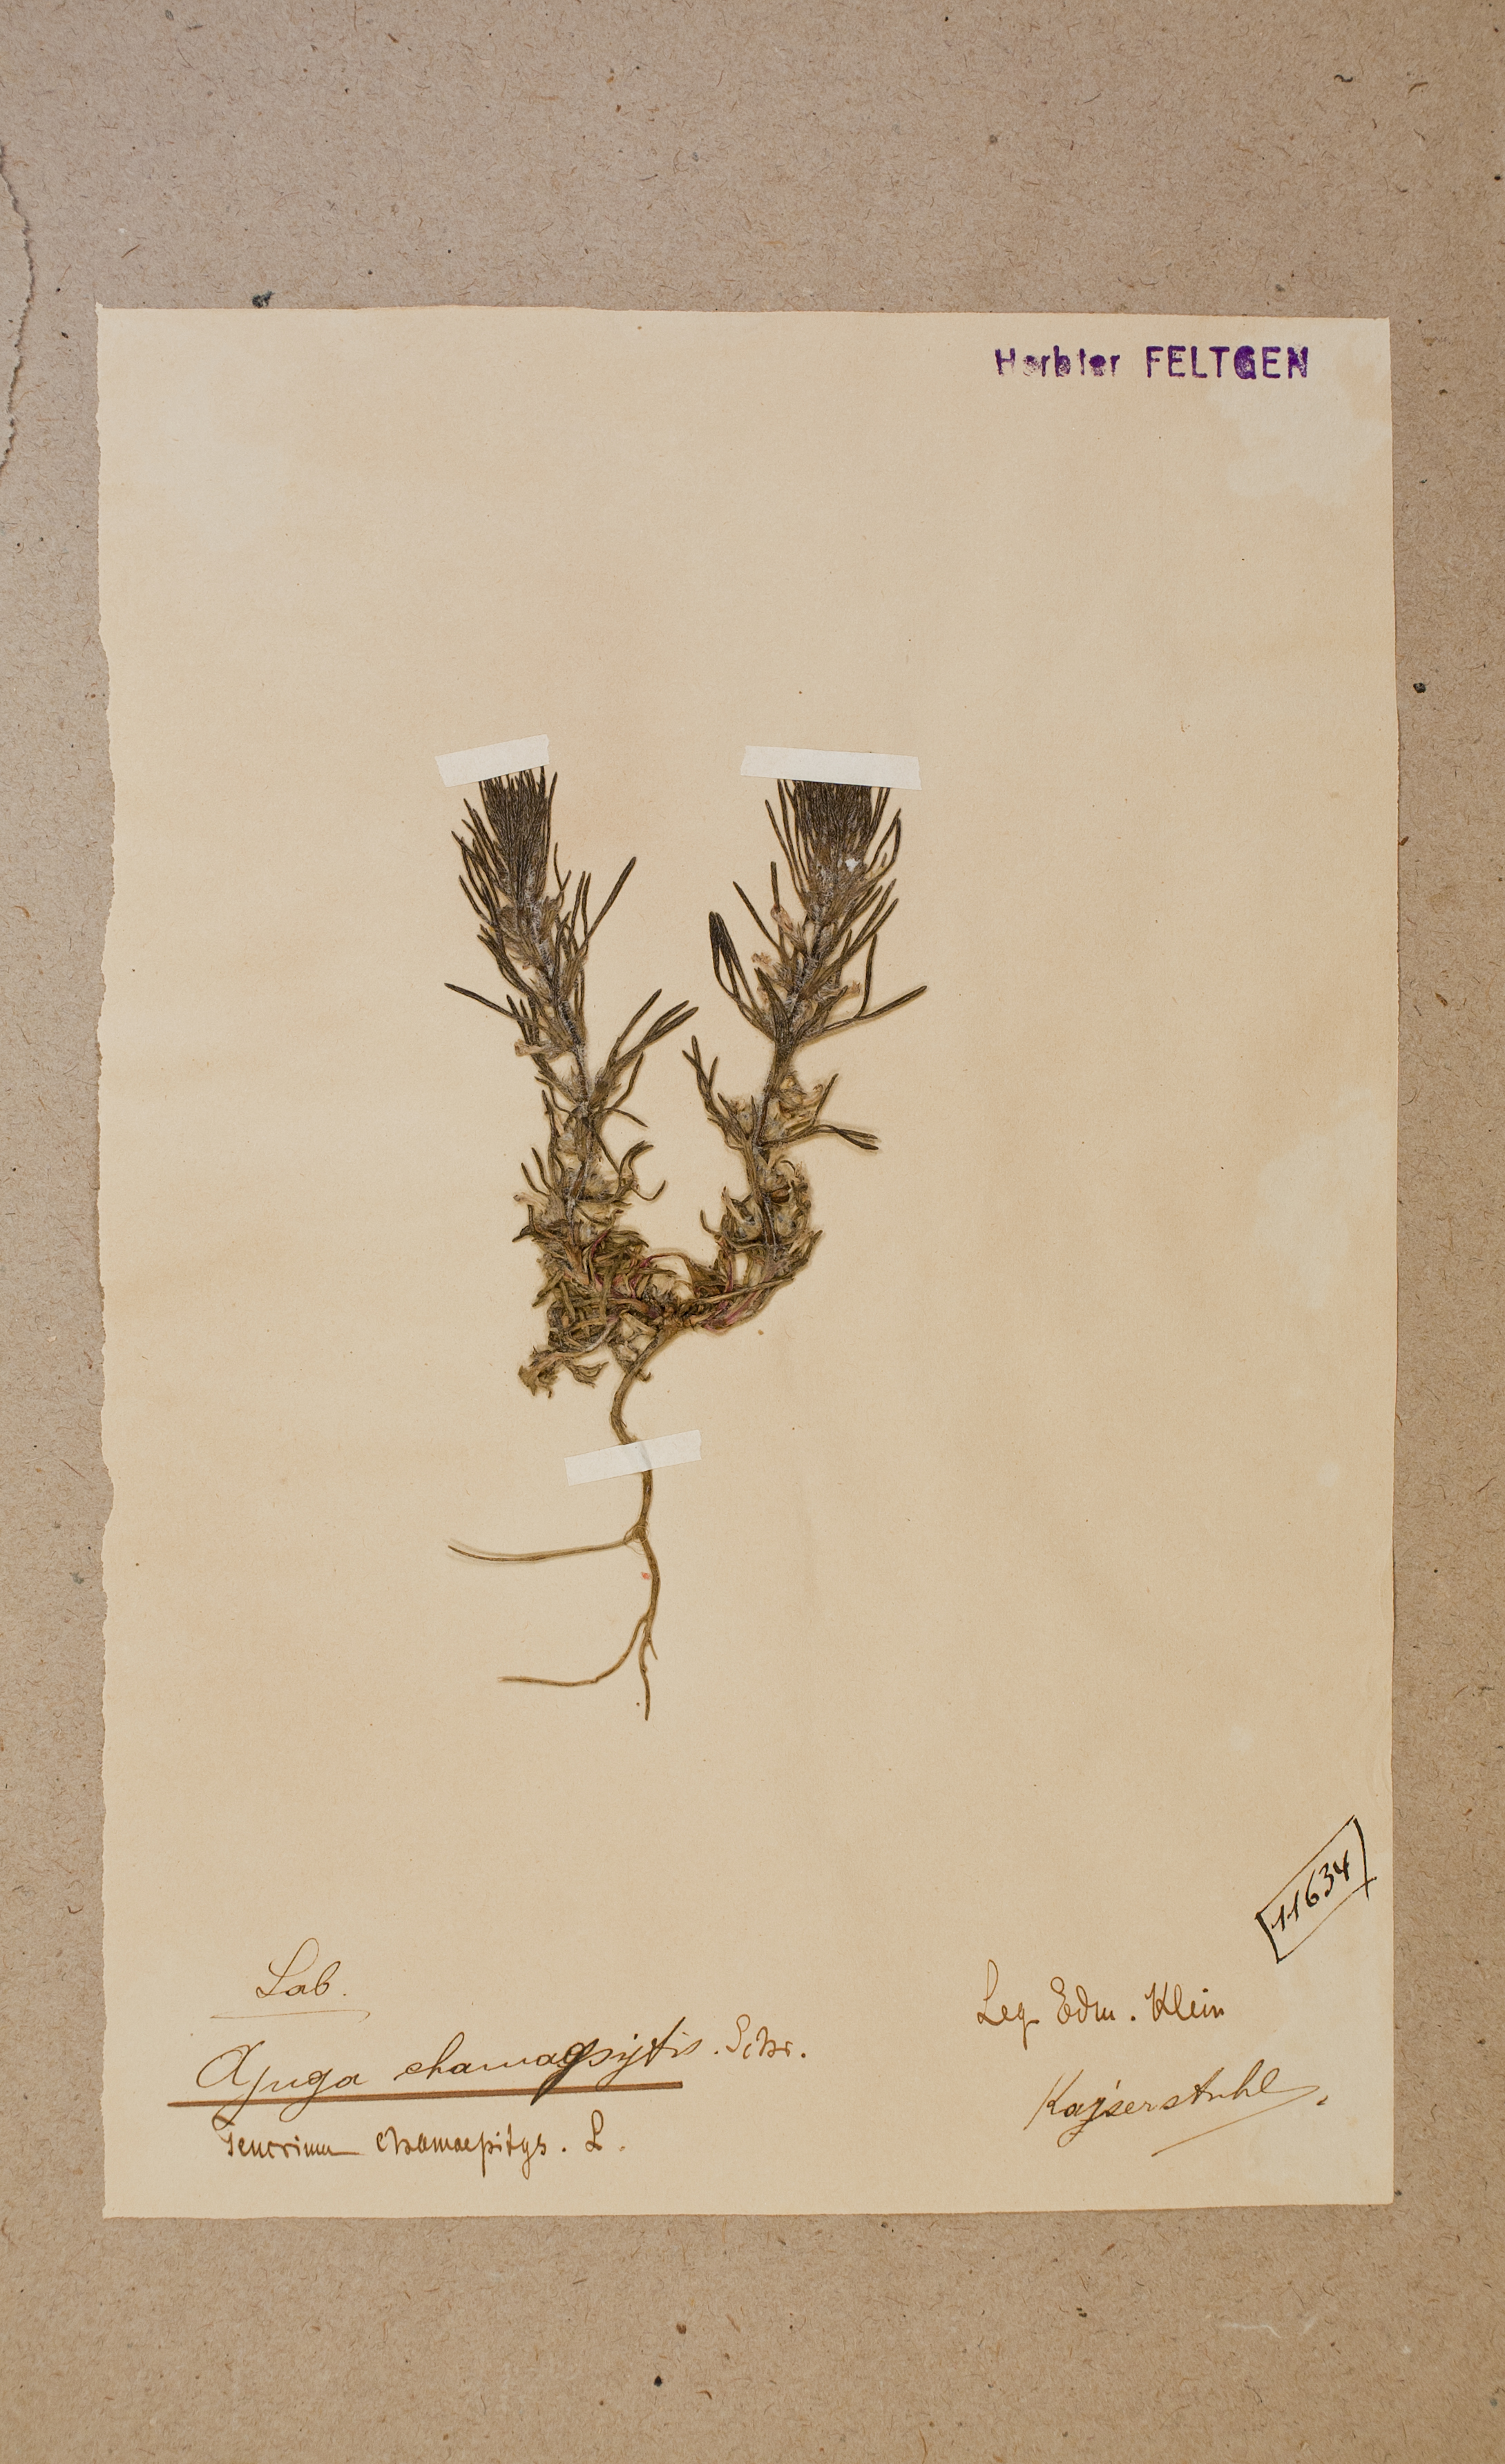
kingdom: Plantae
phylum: Tracheophyta
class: Magnoliopsida
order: Lamiales
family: Lamiaceae
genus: Ajuga
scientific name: Ajuga chamaepitys
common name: Ground-pine
